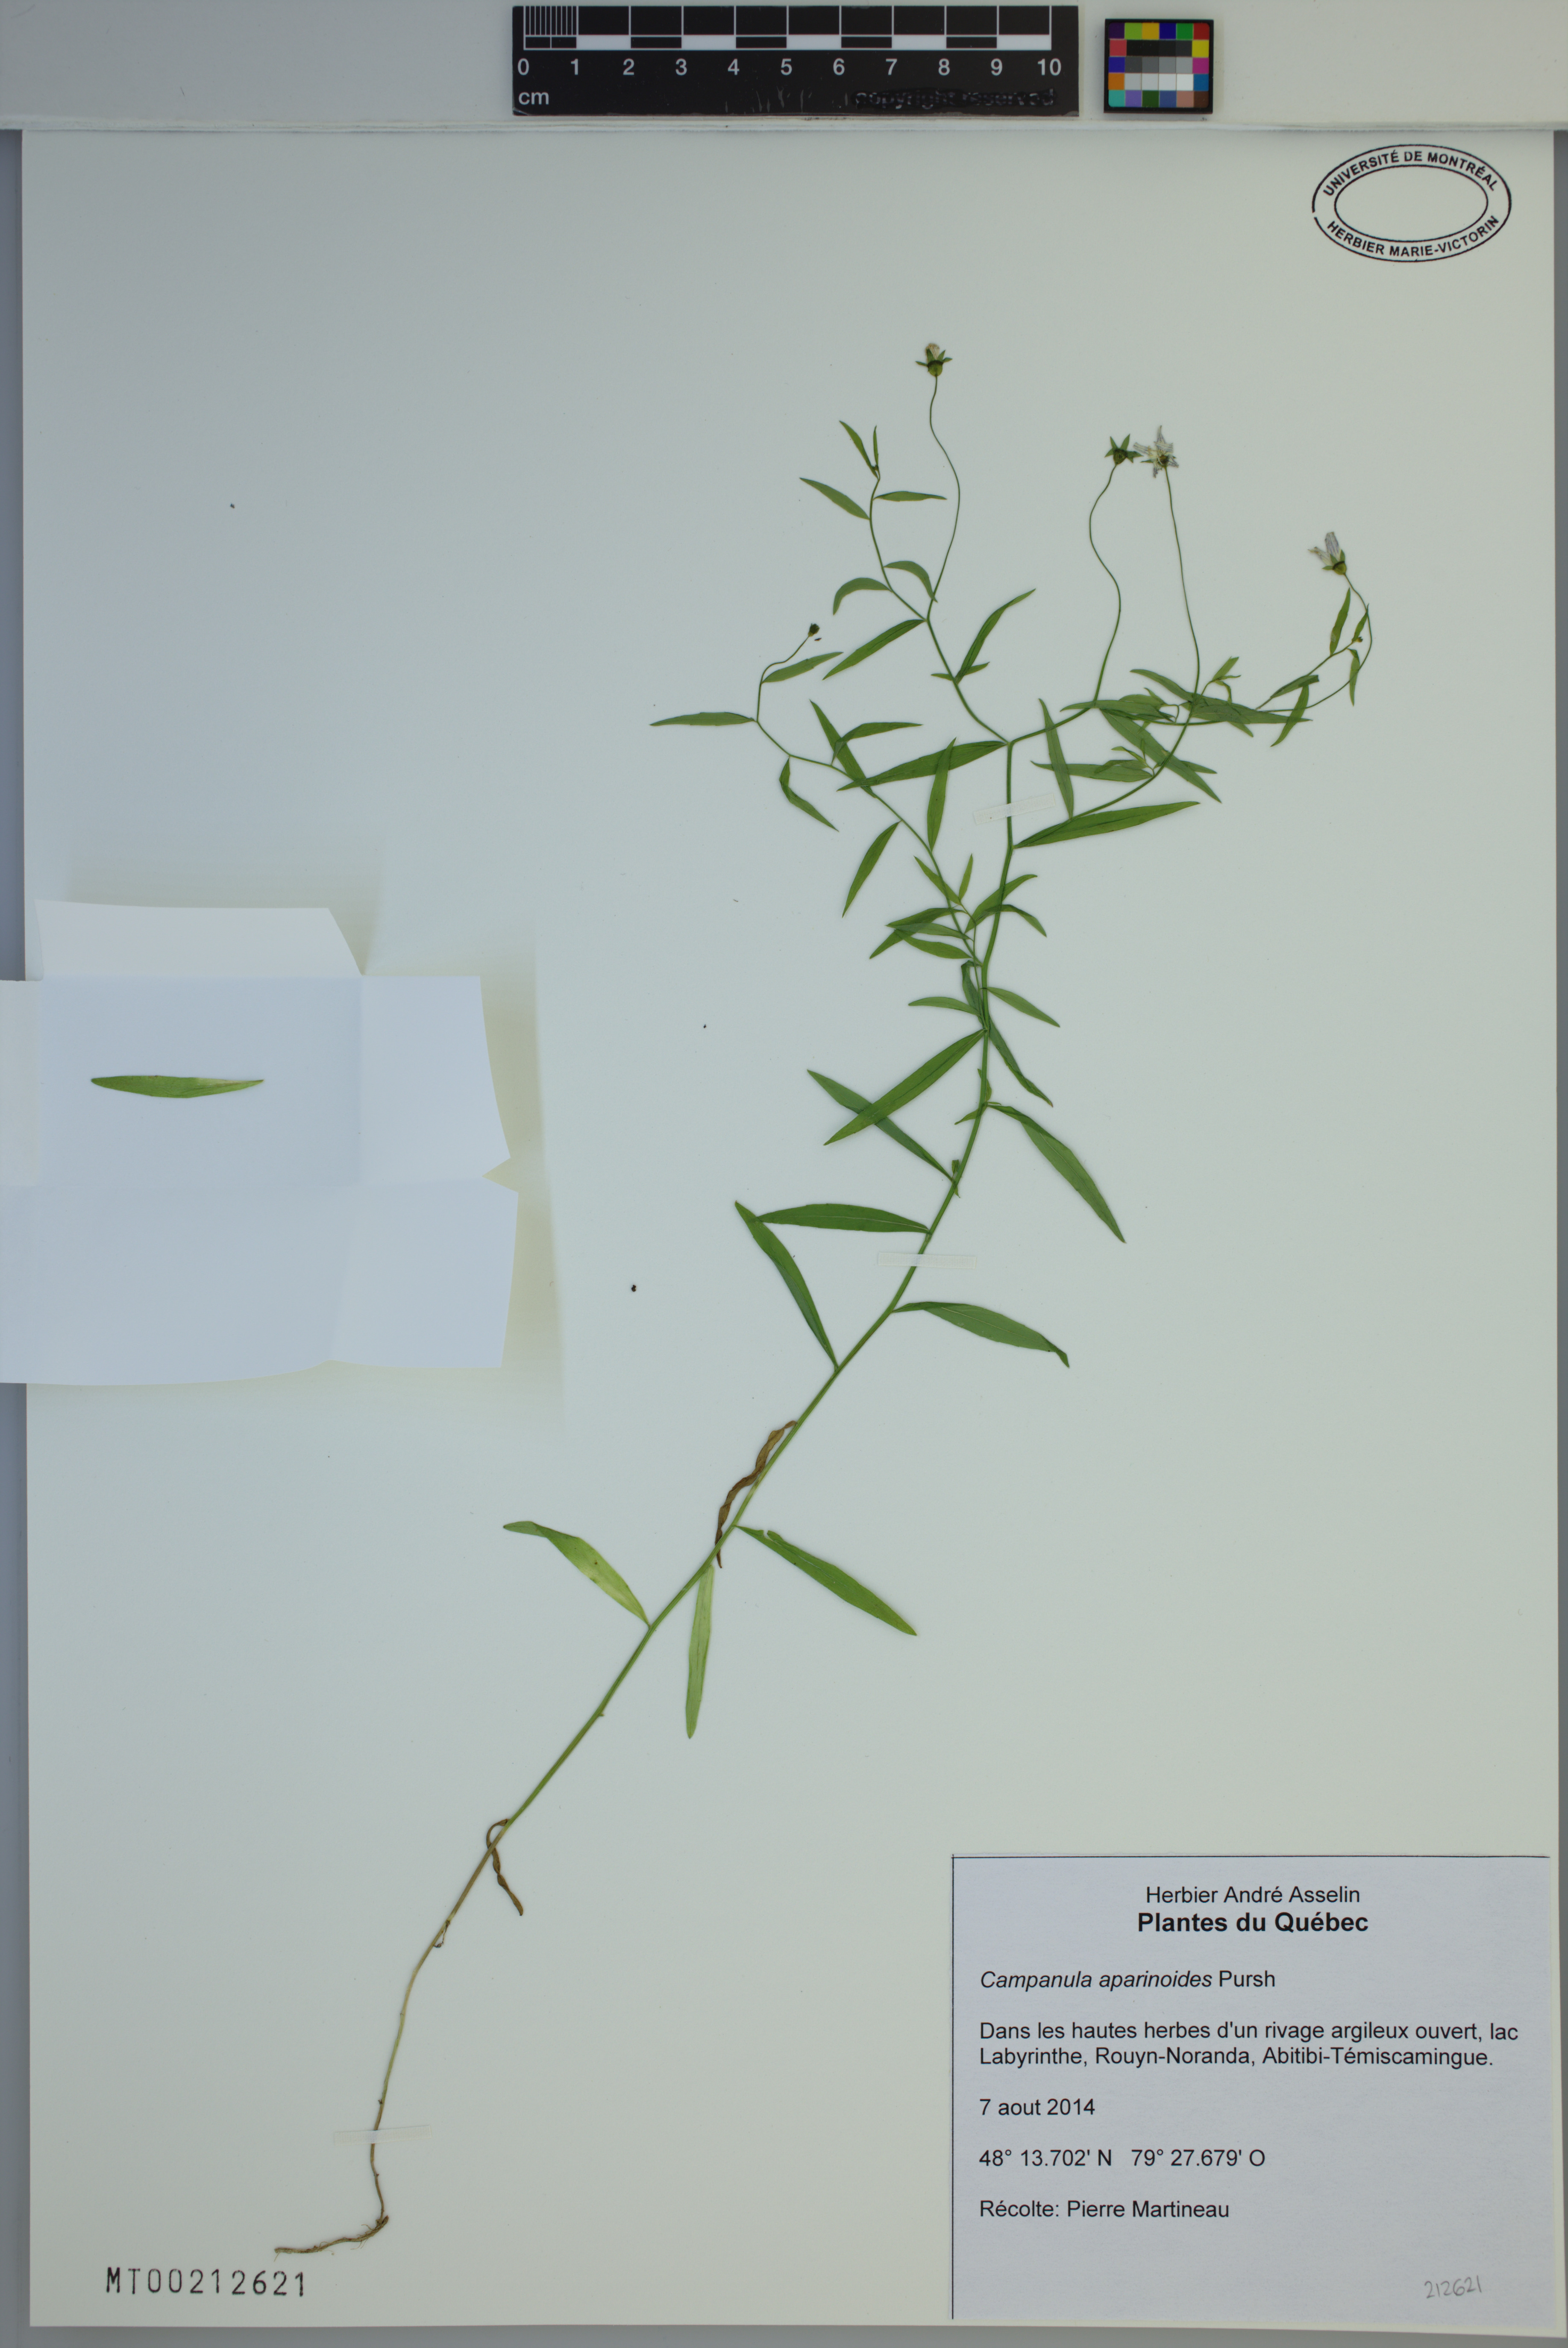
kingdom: Plantae
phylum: Tracheophyta
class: Magnoliopsida
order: Asterales
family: Campanulaceae
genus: Palustricodon
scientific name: Palustricodon aparinoides
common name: Bedstraw bellflower
